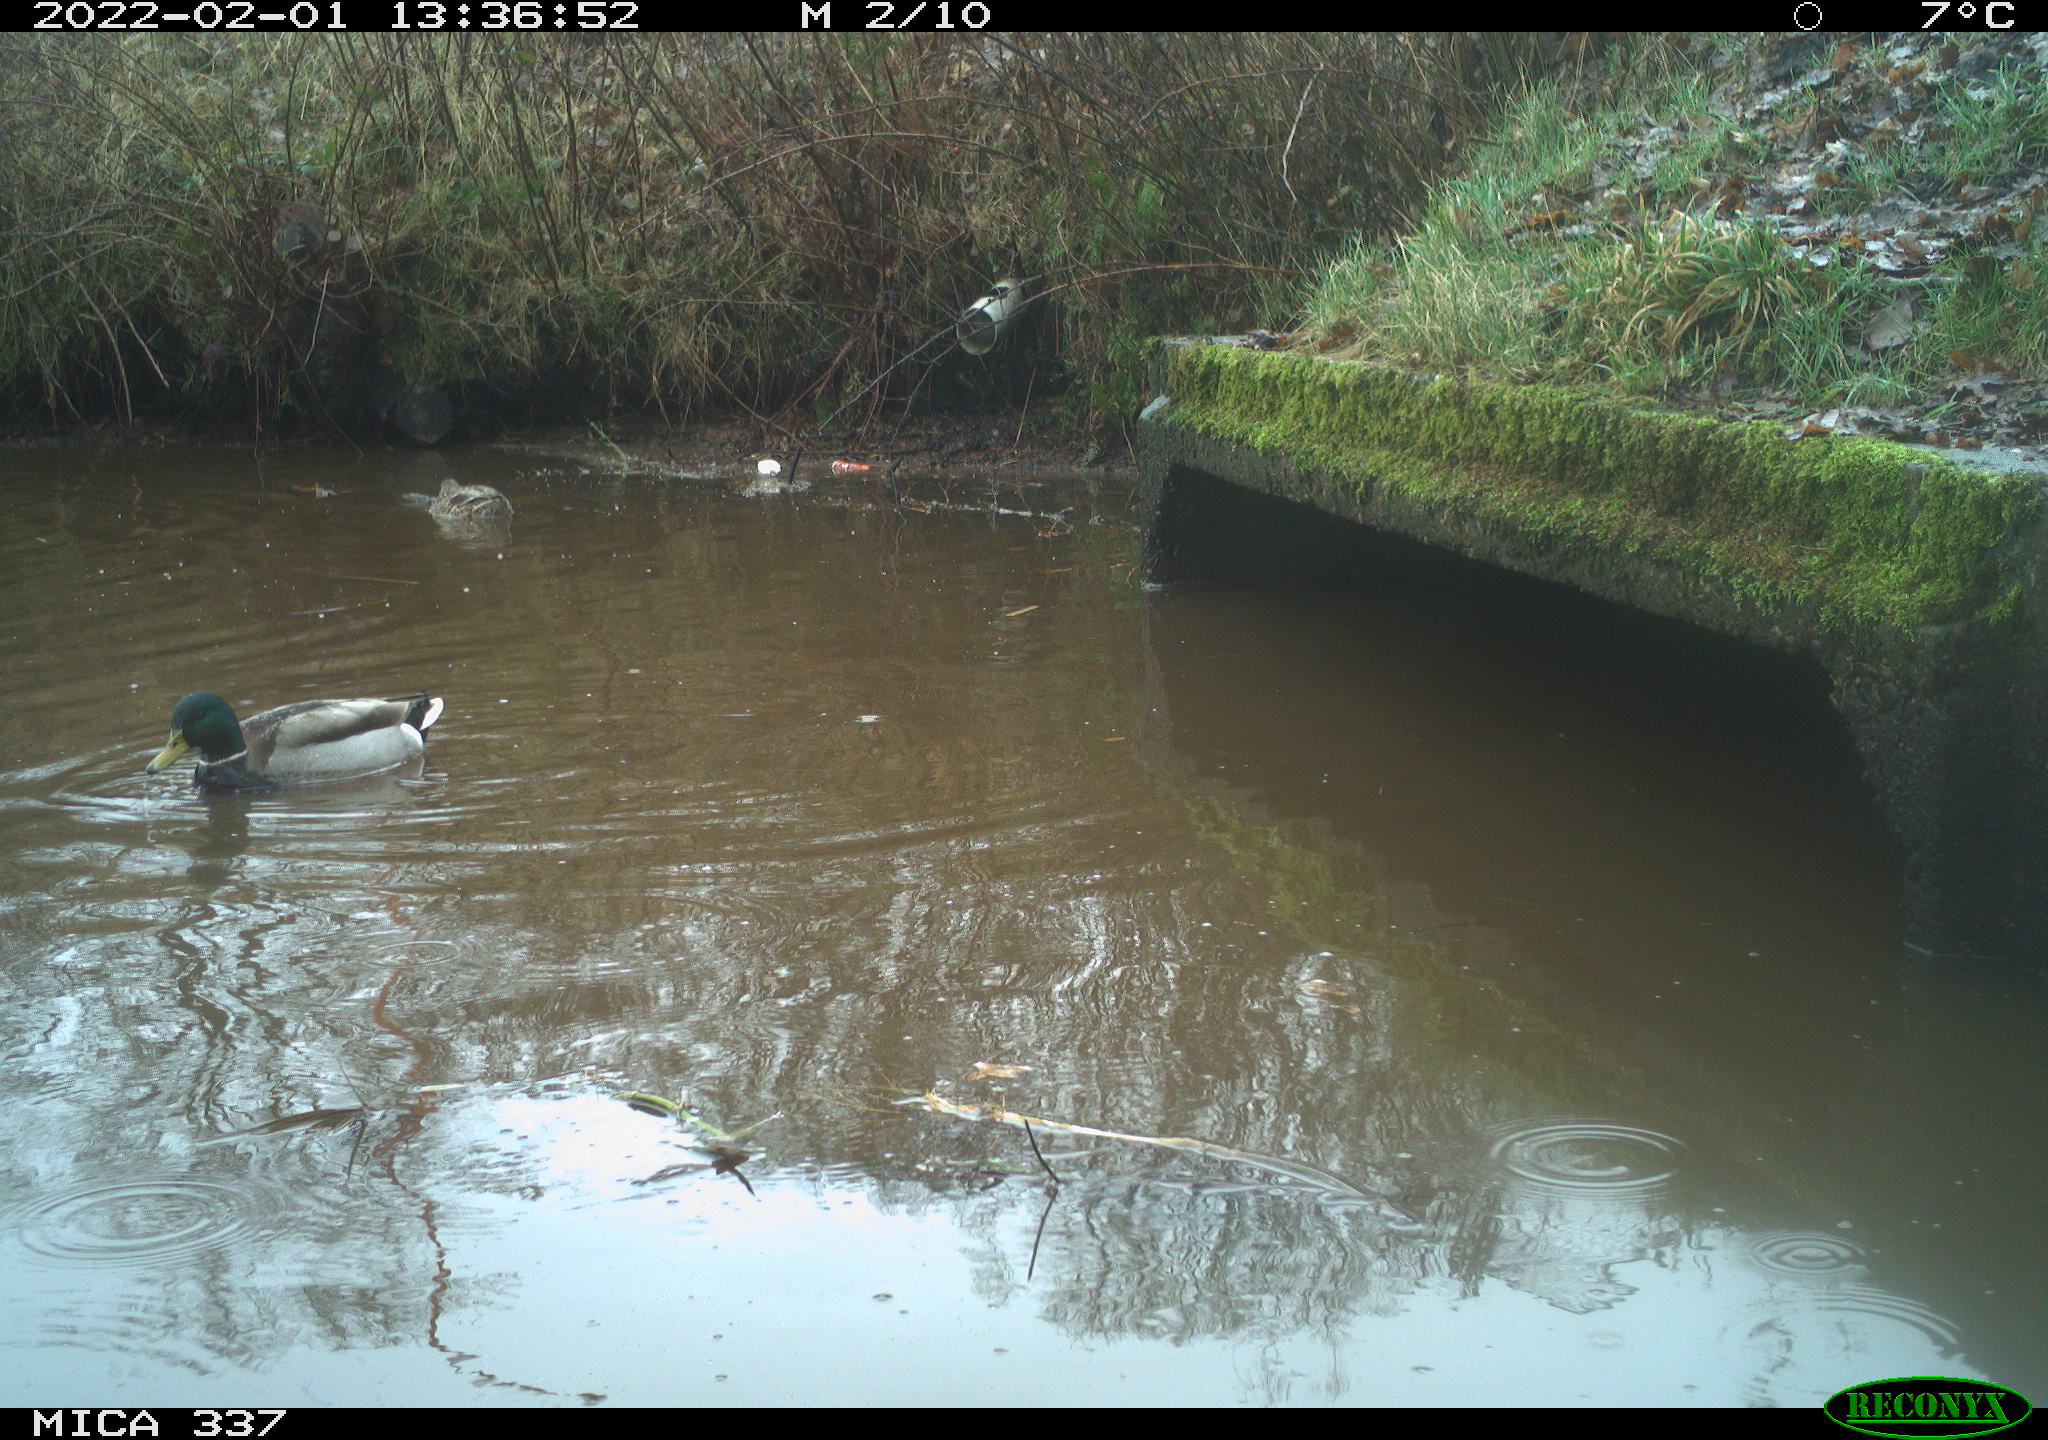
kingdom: Animalia
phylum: Chordata
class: Aves
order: Anseriformes
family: Anatidae
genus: Anas
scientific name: Anas platyrhynchos
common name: Mallard
